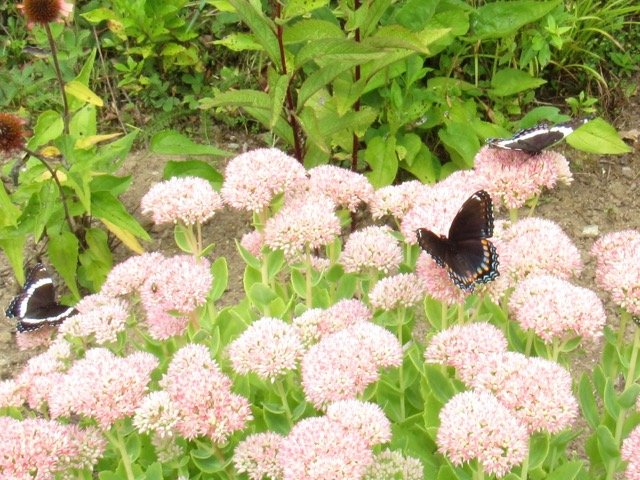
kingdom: Animalia
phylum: Arthropoda
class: Insecta
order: Lepidoptera
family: Nymphalidae
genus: Limenitis
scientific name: Limenitis
